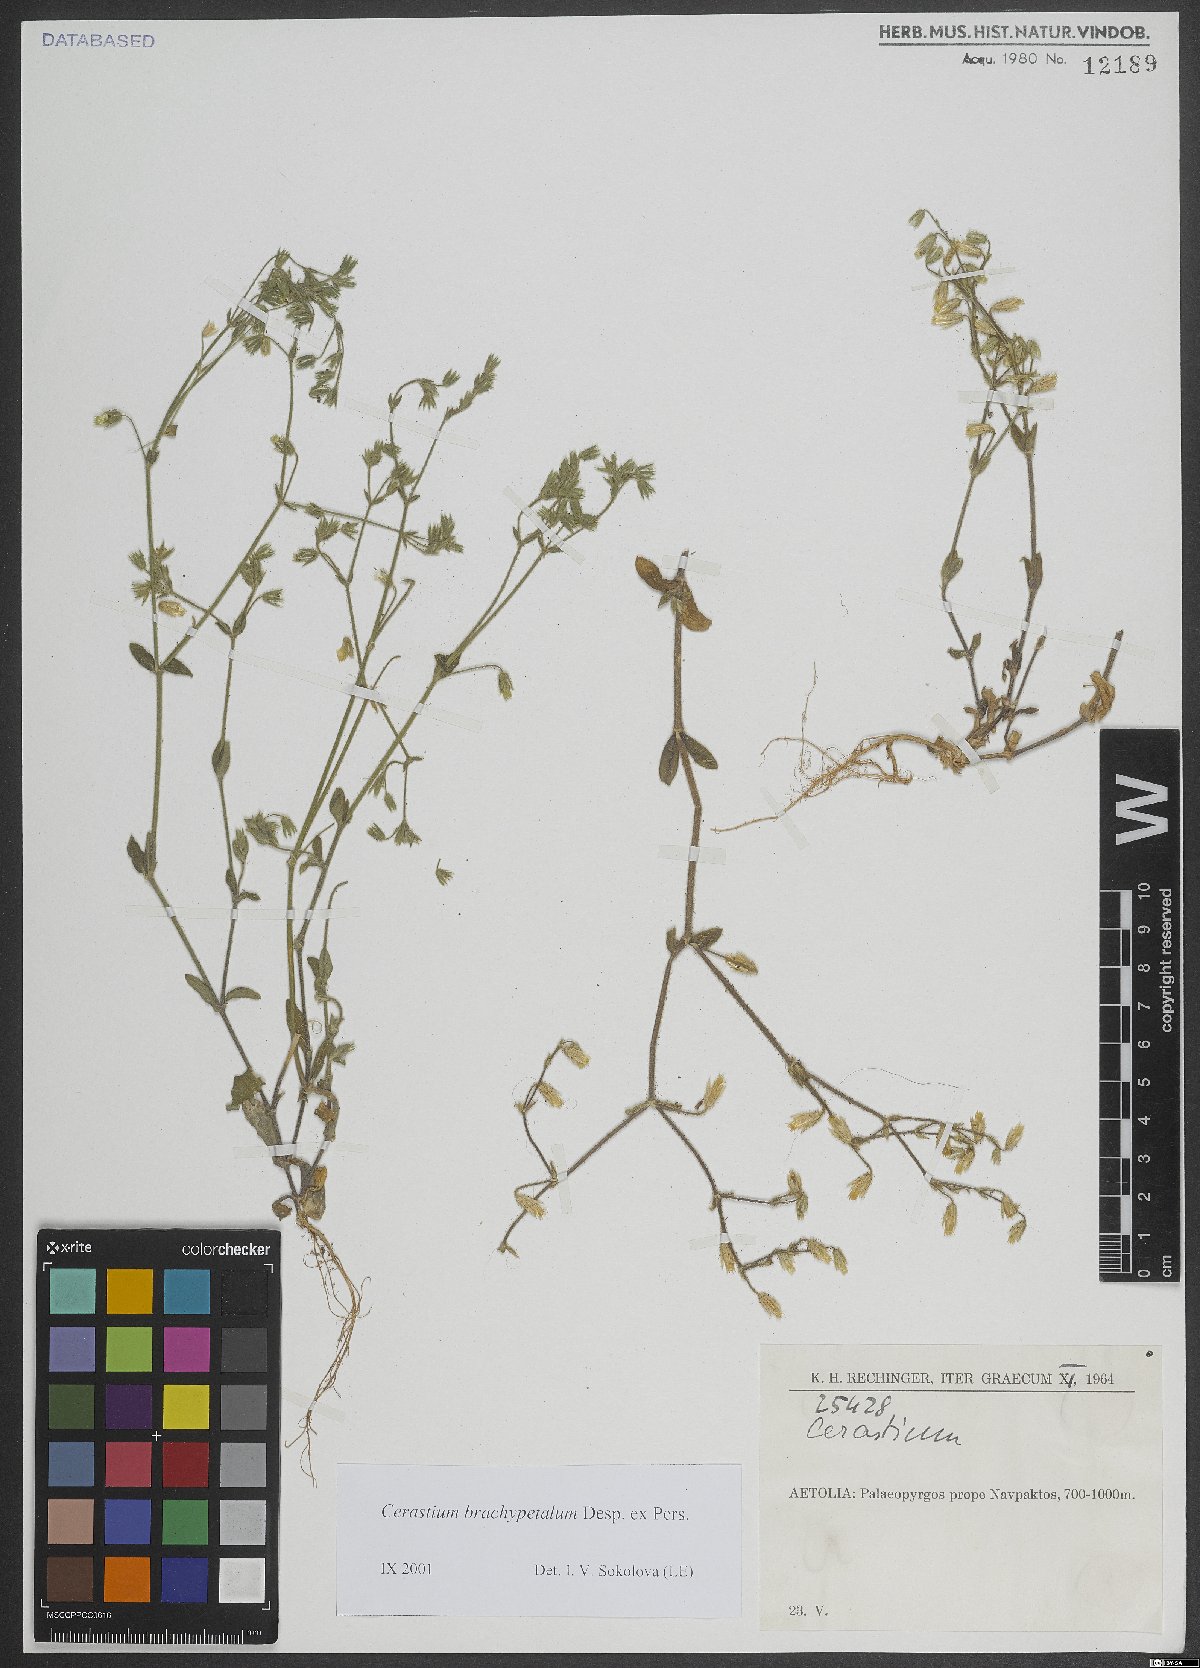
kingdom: Plantae
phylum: Tracheophyta
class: Magnoliopsida
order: Caryophyllales
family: Caryophyllaceae
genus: Cerastium
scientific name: Cerastium brachypetalum
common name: Grey mouse-ear
